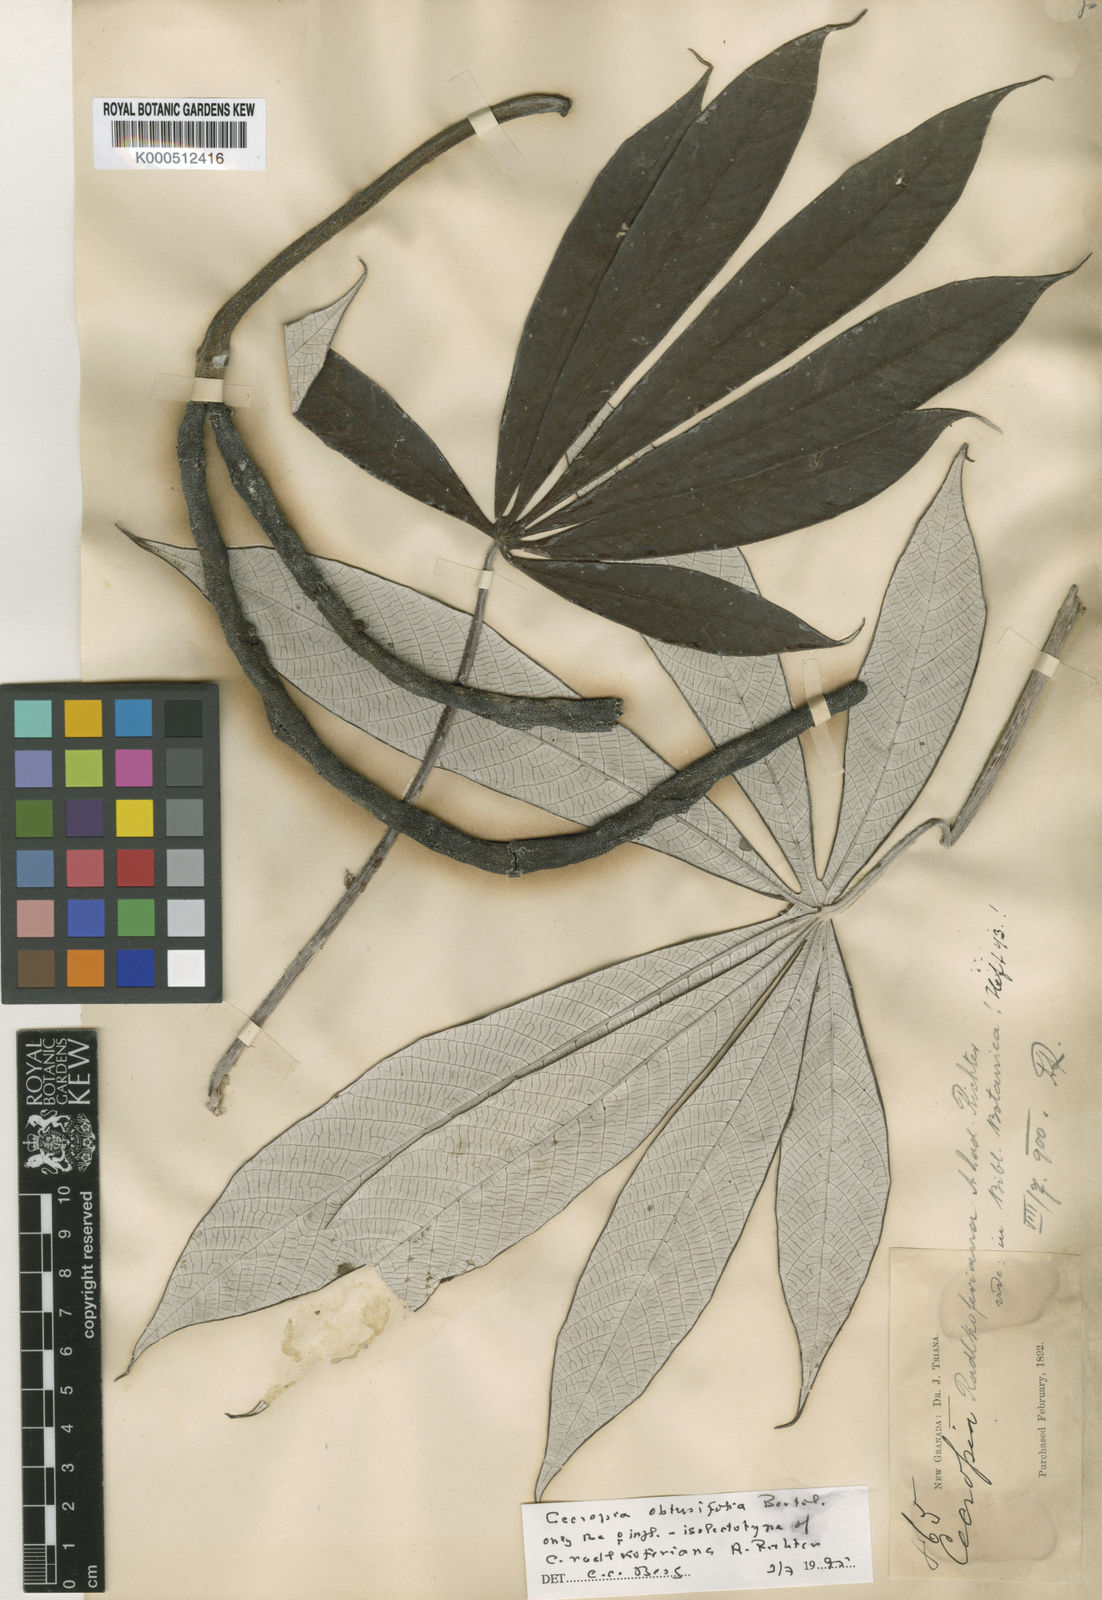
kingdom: Plantae
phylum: Tracheophyta
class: Magnoliopsida
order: Rosales
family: Urticaceae
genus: Cecropia
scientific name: Cecropia obtusifolia
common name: Trumpet tree
